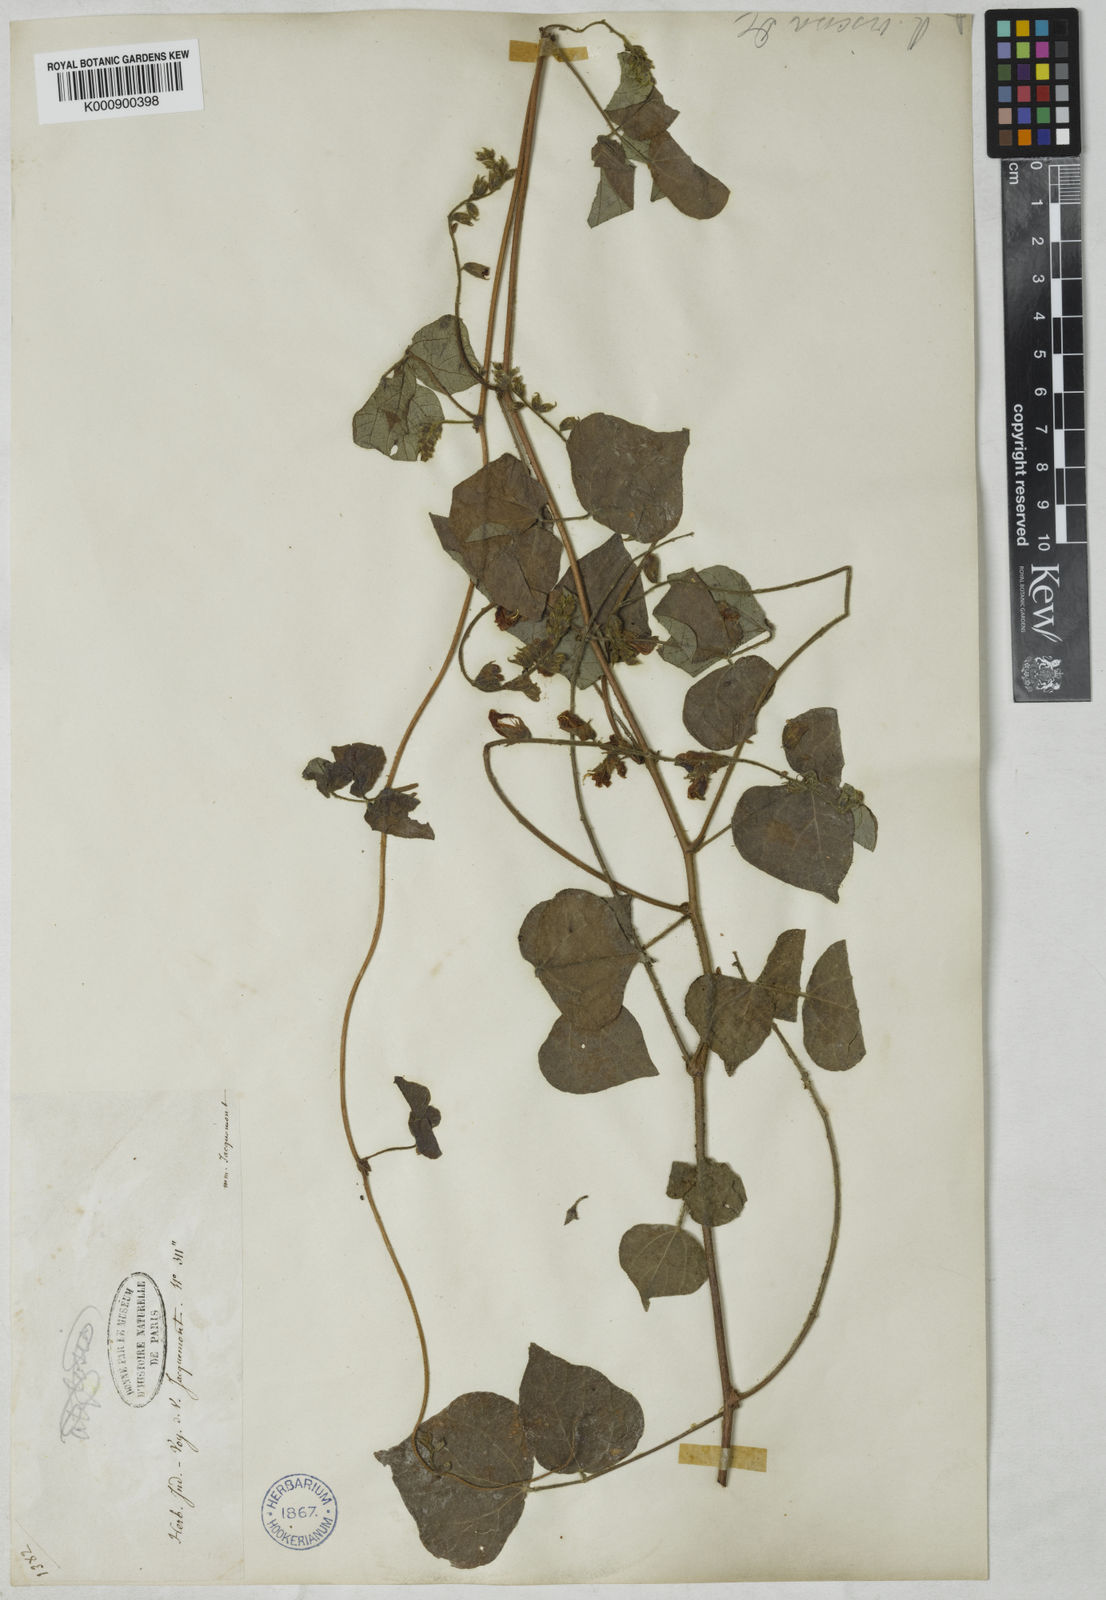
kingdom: Plantae
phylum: Tracheophyta
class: Magnoliopsida
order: Fabales
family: Fabaceae
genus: Rhynchosia
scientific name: Rhynchosia viscosa
